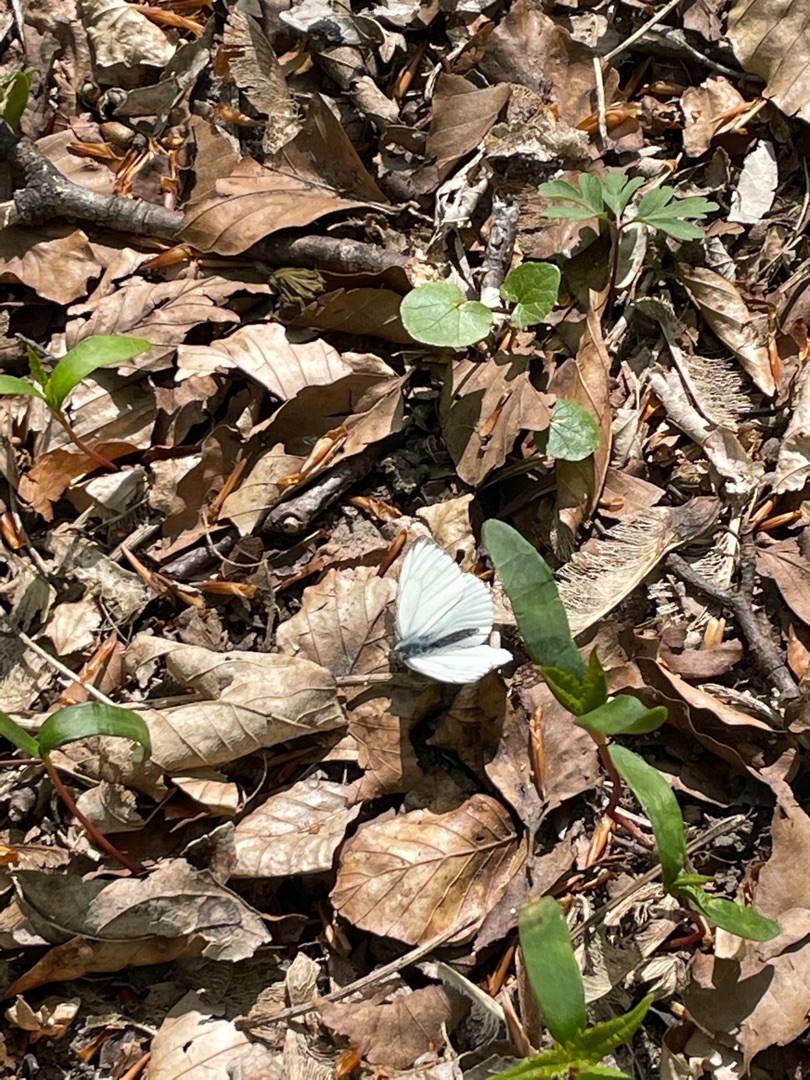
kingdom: Animalia
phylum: Arthropoda
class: Insecta
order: Lepidoptera
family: Pieridae
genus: Pieris
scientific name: Pieris napi
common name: Grønåret kålsommerfugl
